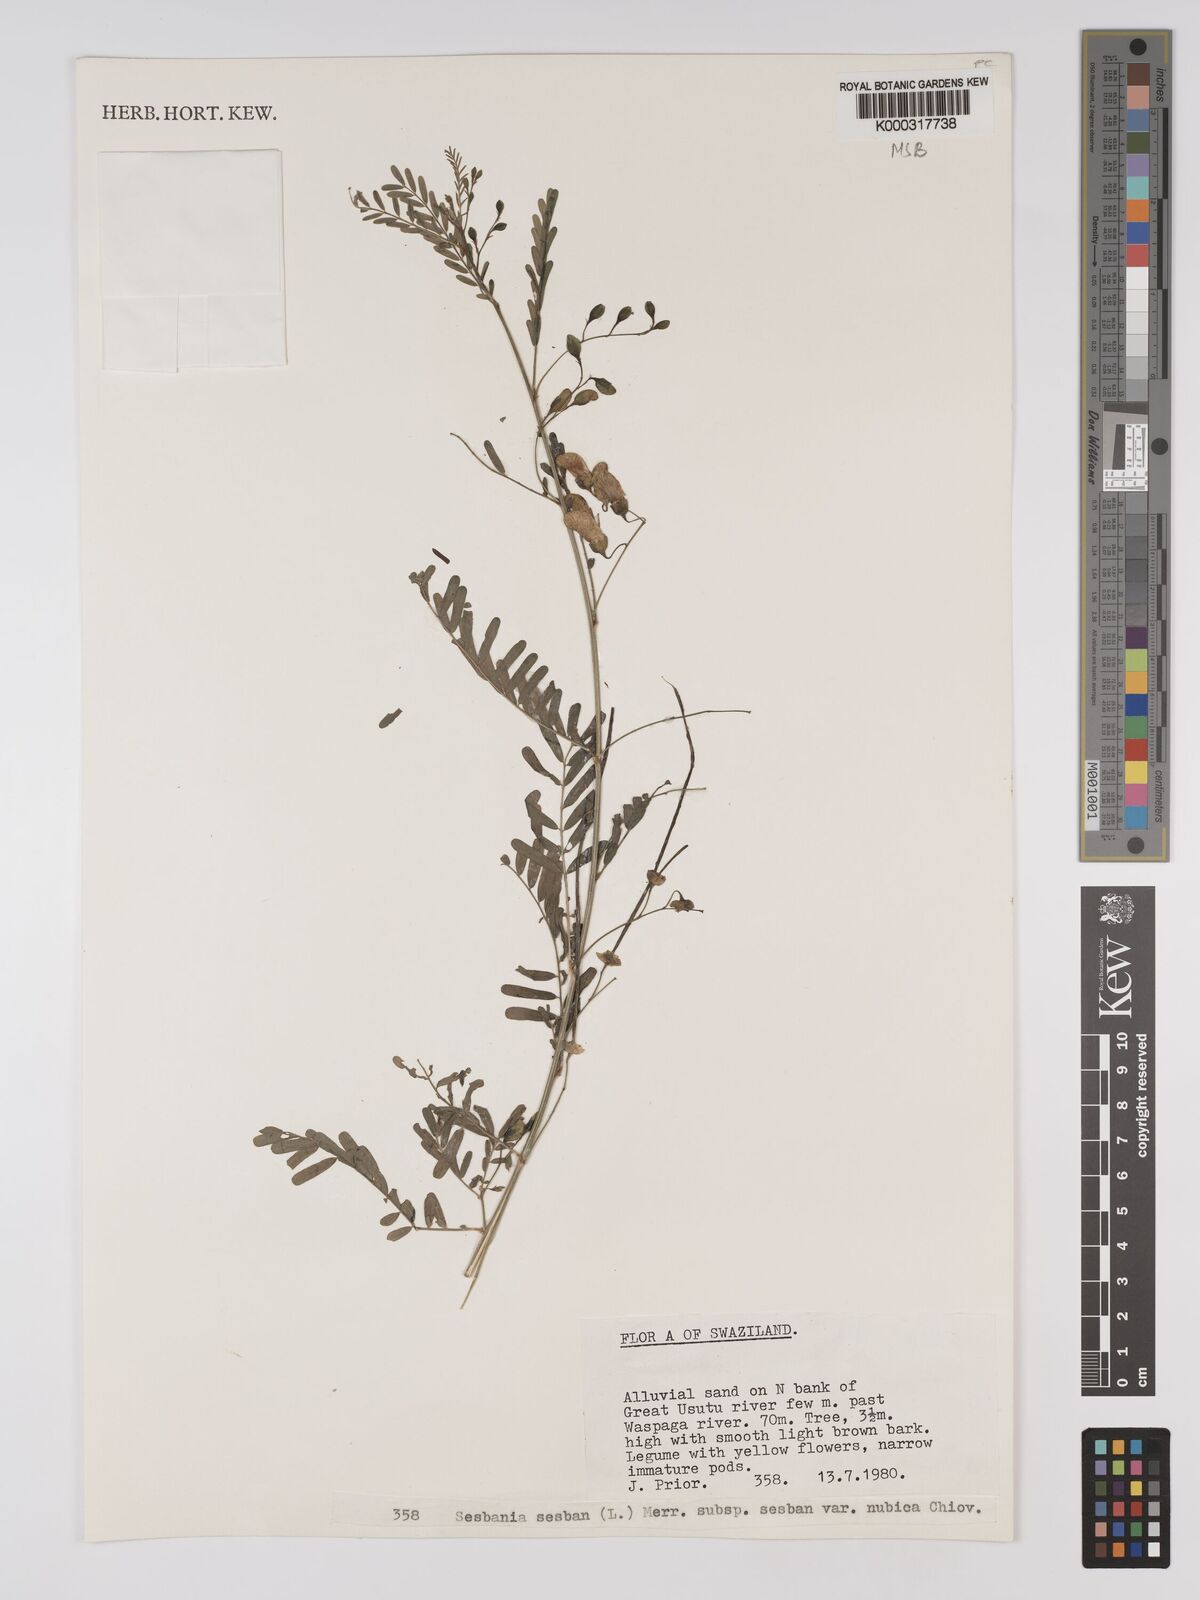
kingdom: Plantae
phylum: Tracheophyta
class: Magnoliopsida
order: Fabales
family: Fabaceae
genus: Sesbania
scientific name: Sesbania sesban
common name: Egyptian sesban
